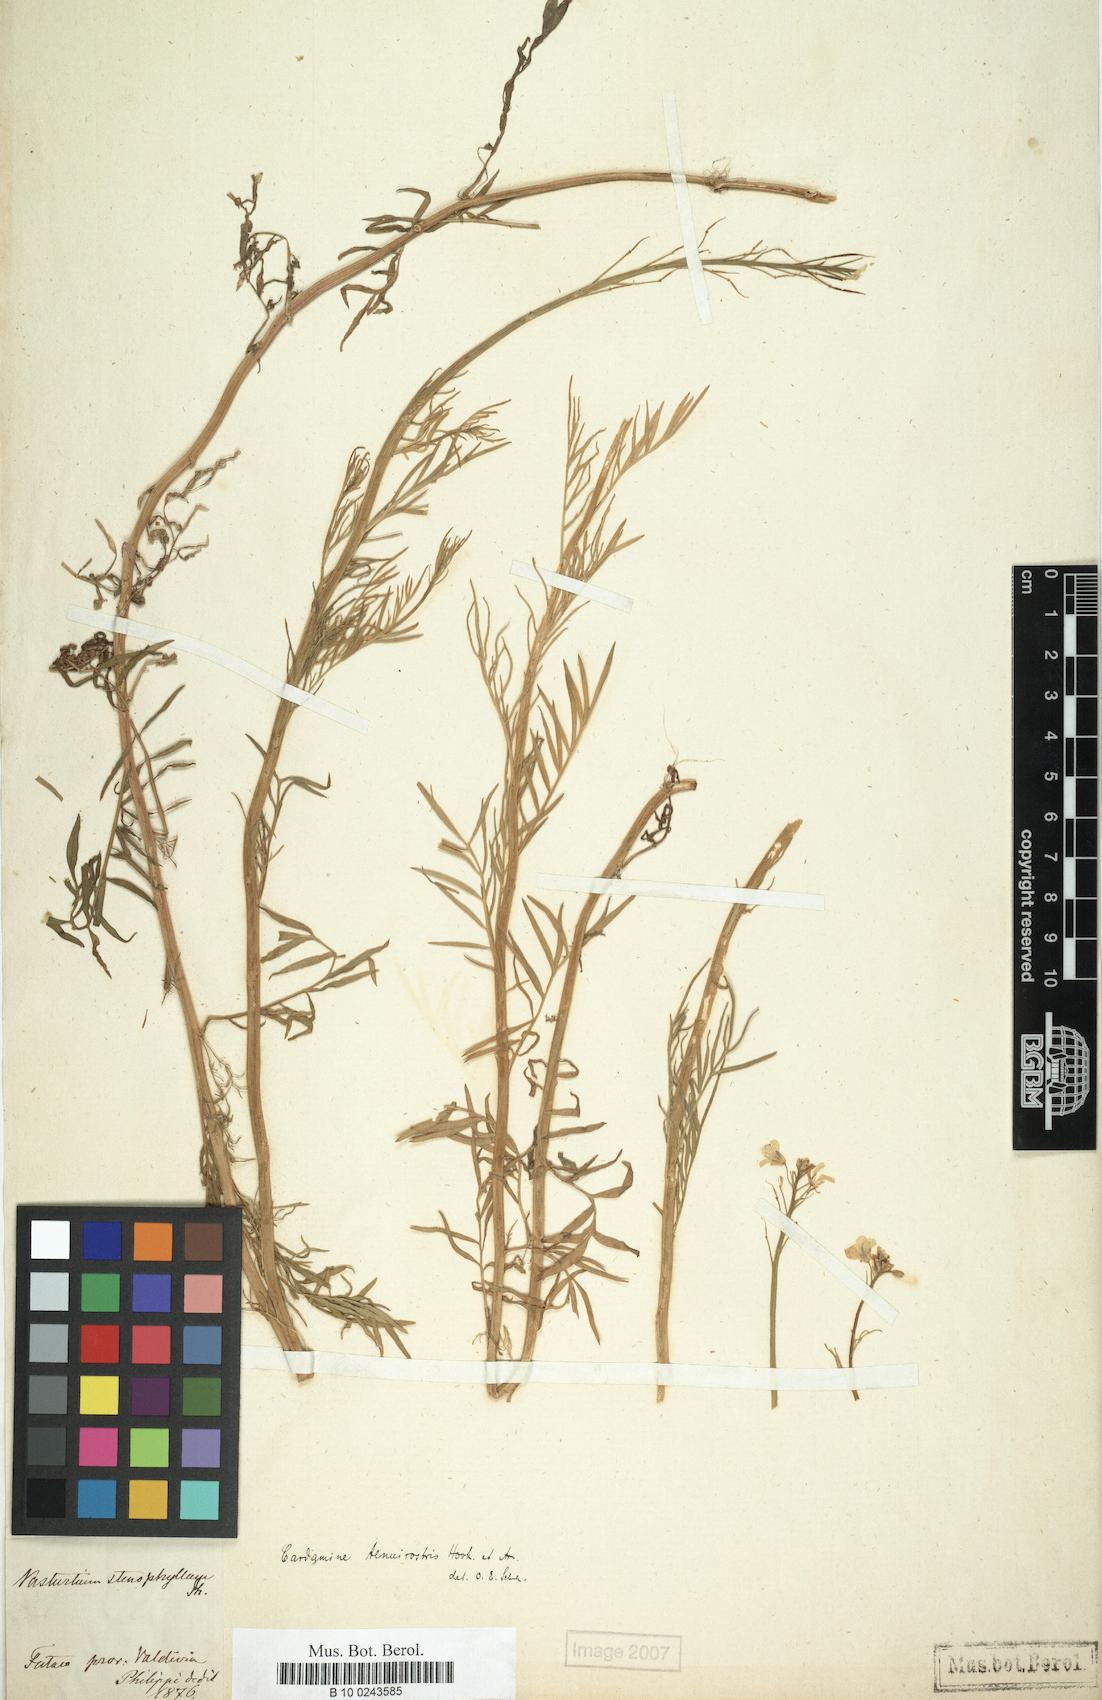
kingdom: Plantae
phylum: Tracheophyta
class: Magnoliopsida
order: Brassicales
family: Brassicaceae
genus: Cardamine
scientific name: Cardamine tenuirostris
